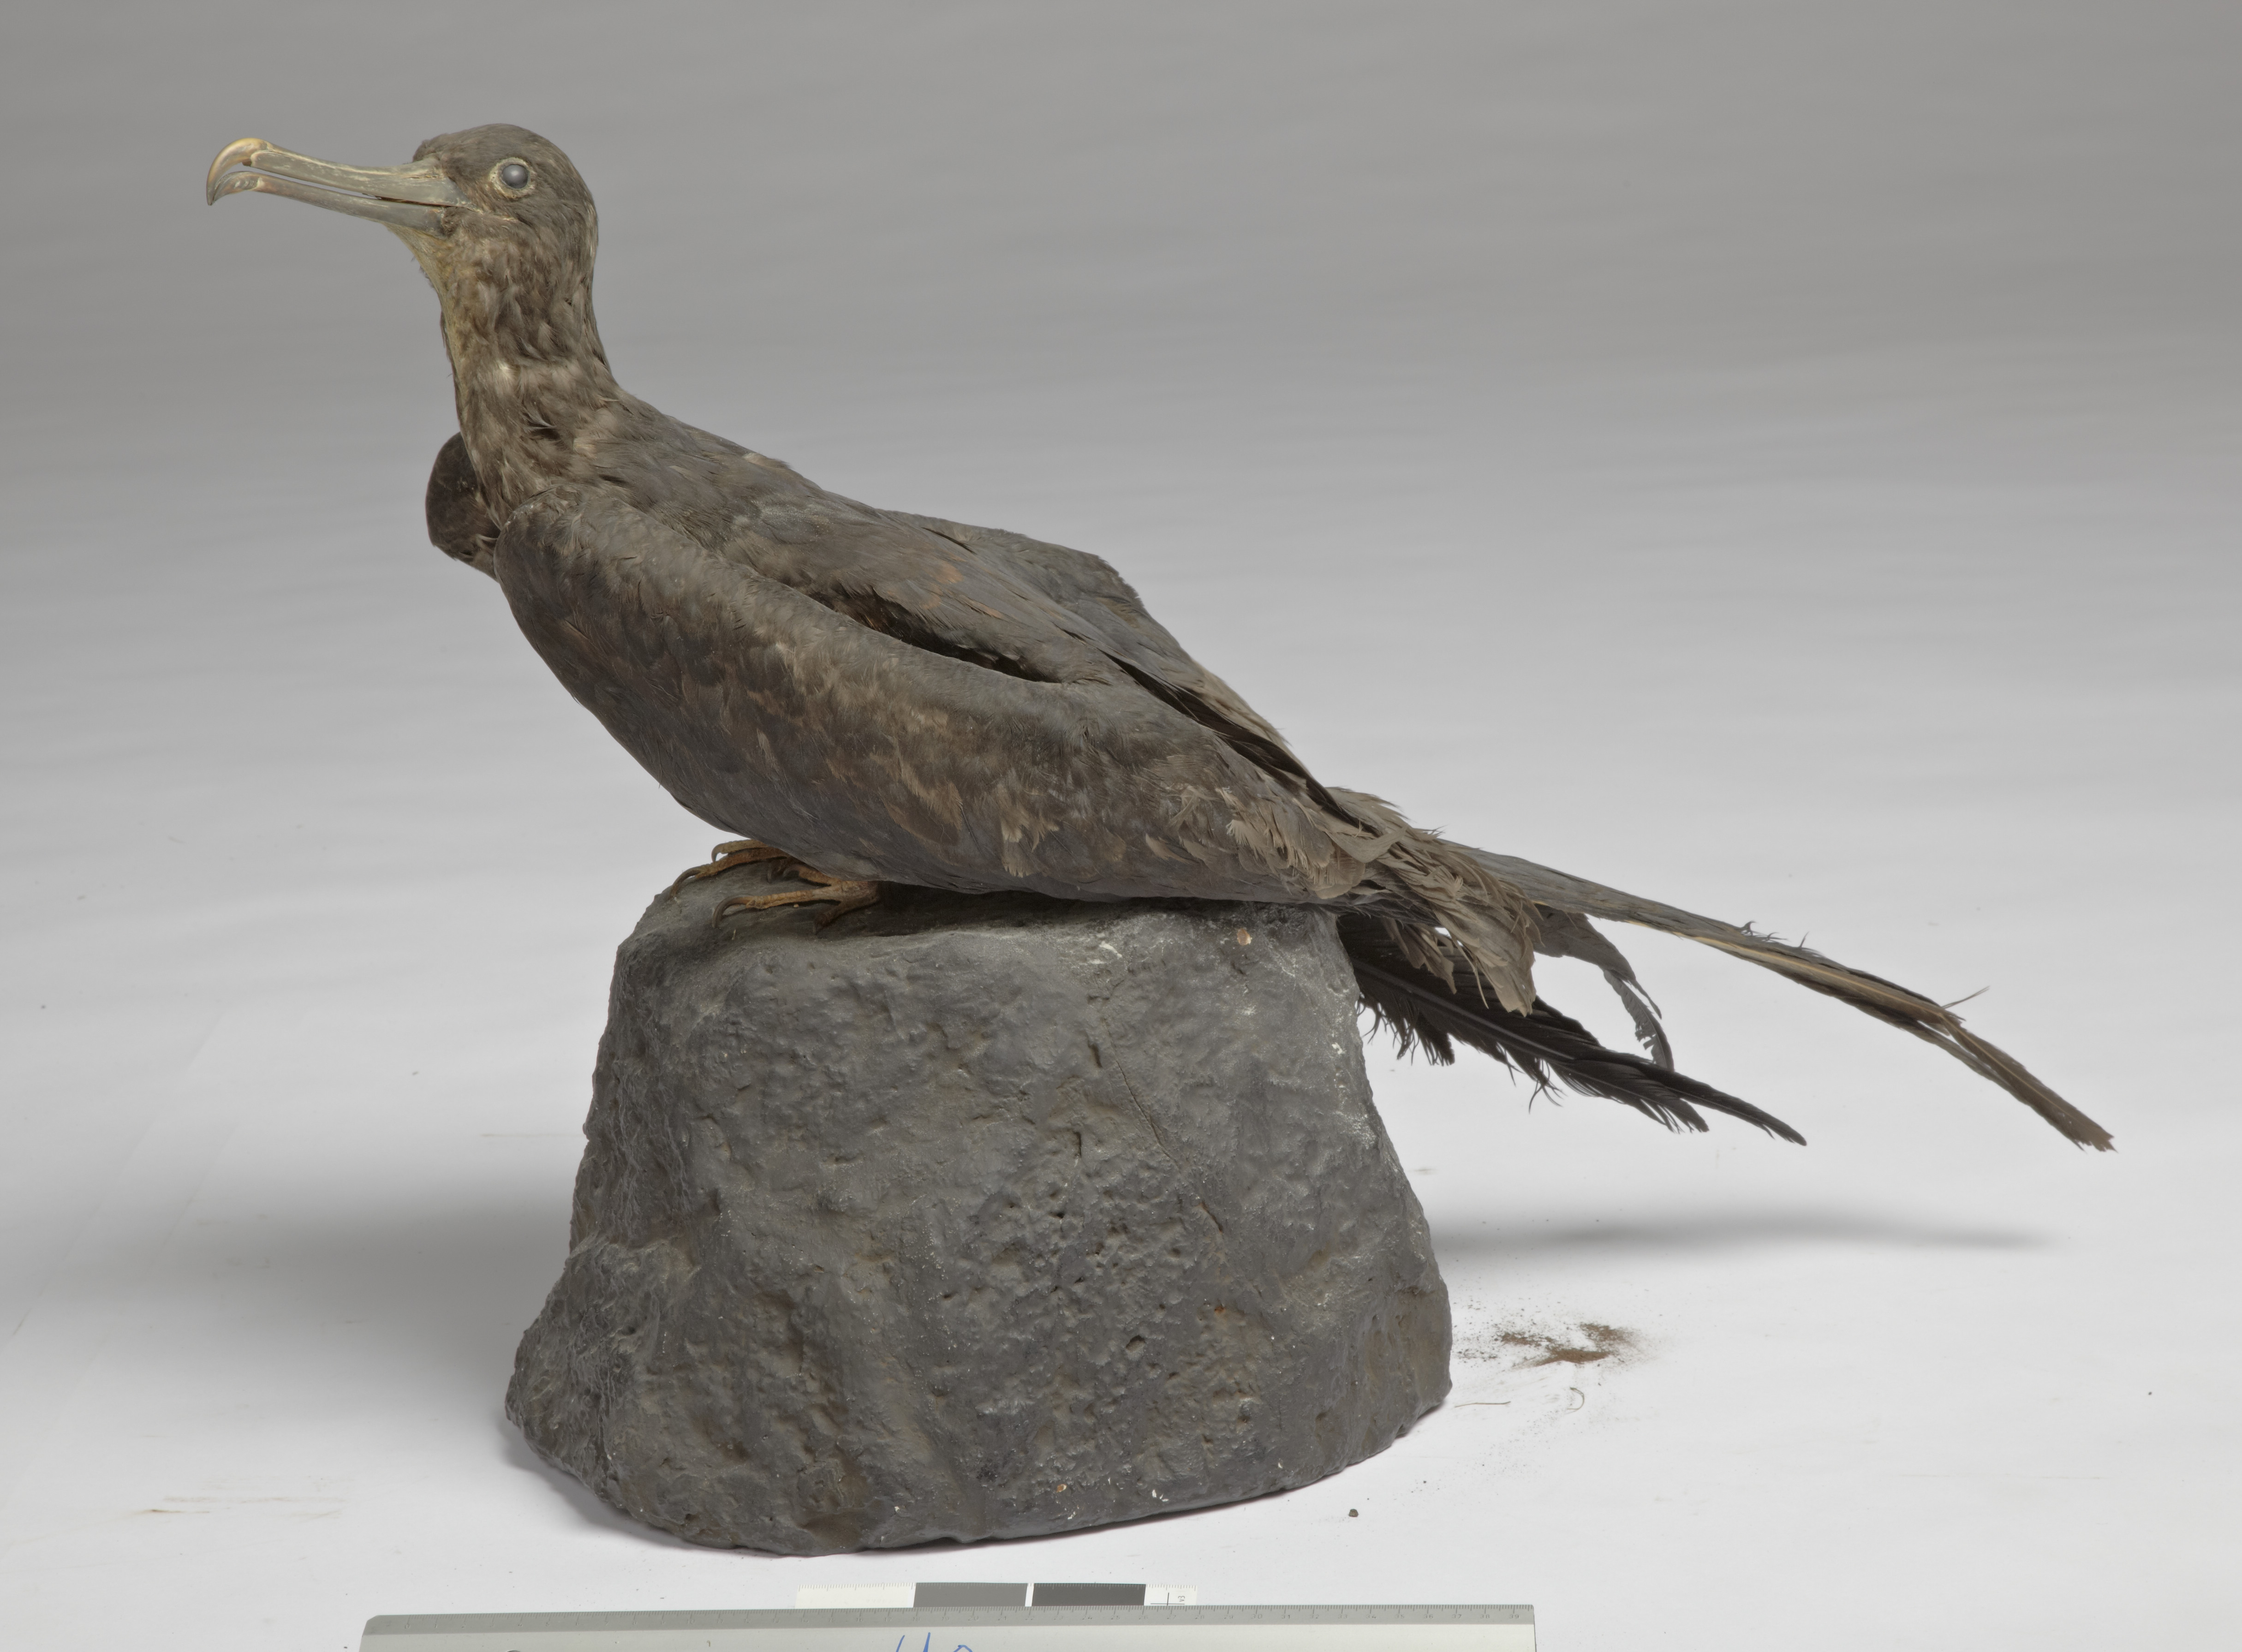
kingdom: Animalia
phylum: Chordata
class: Aves
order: Suliformes
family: Fregatidae
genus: Fregata
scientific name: Fregata aquila
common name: Ascension frigatebird
